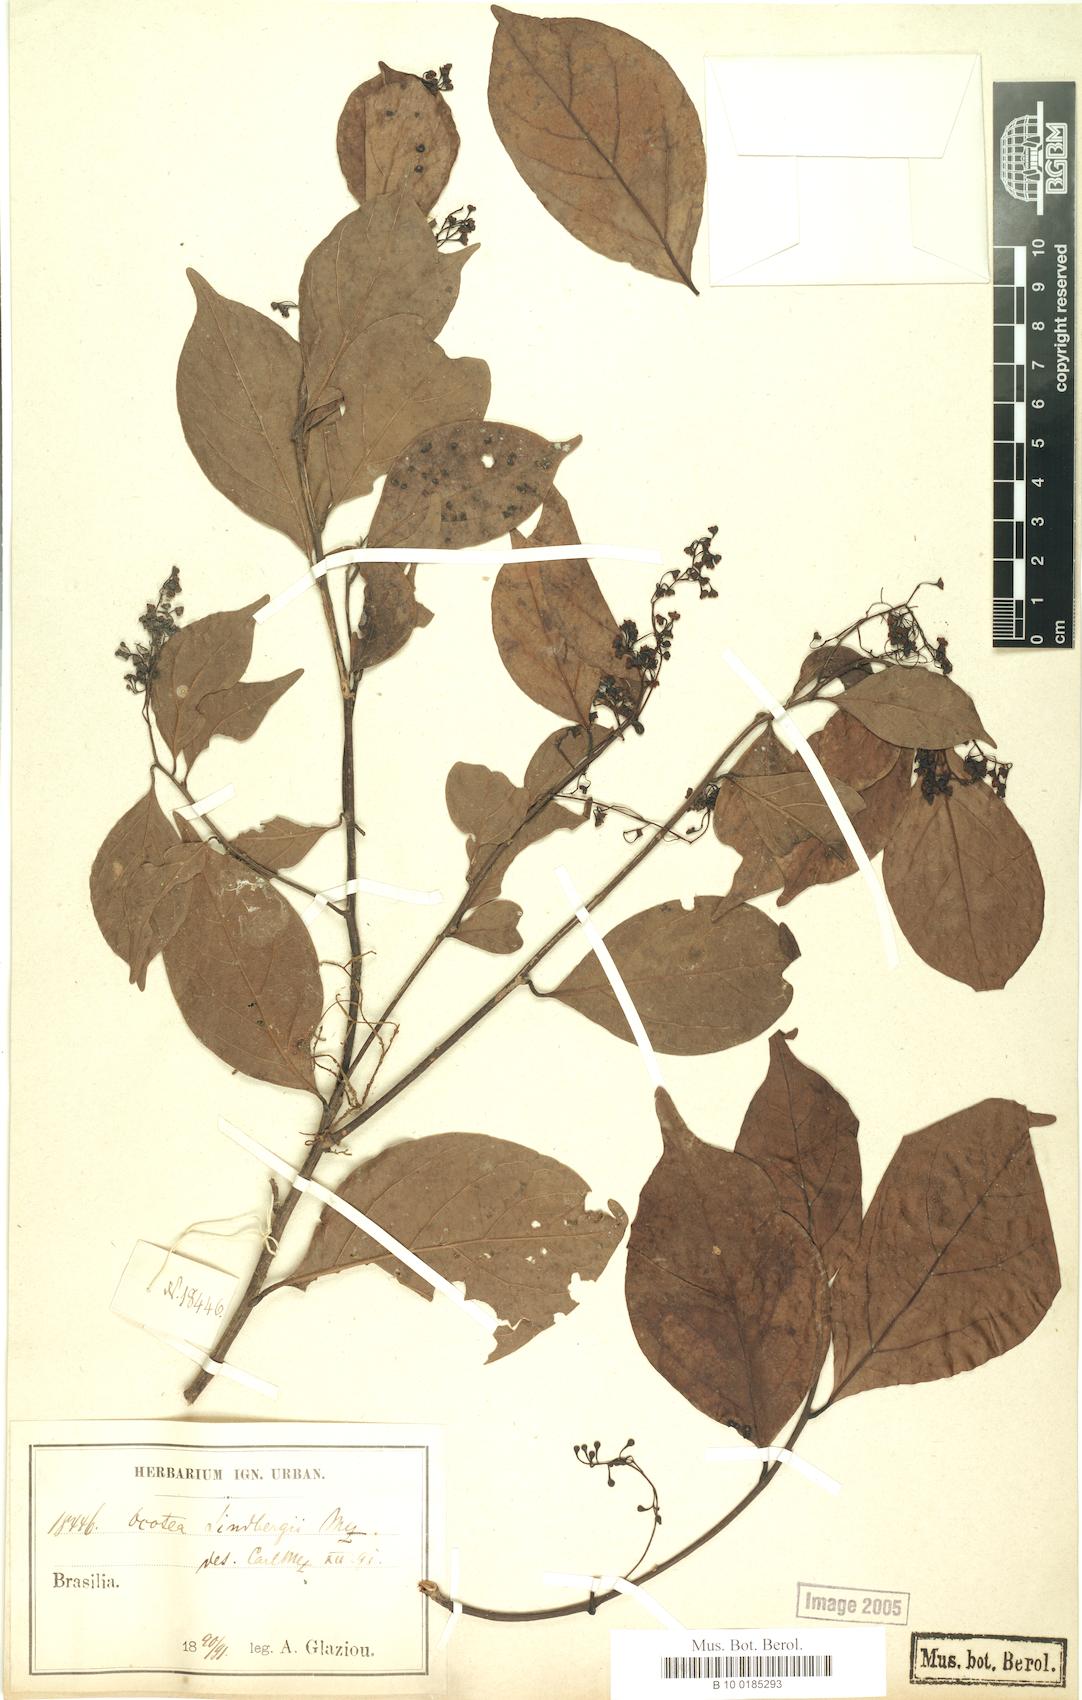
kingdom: Plantae
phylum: Tracheophyta
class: Magnoliopsida
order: Laurales
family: Lauraceae
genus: Ocotea
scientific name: Ocotea lindbergii
